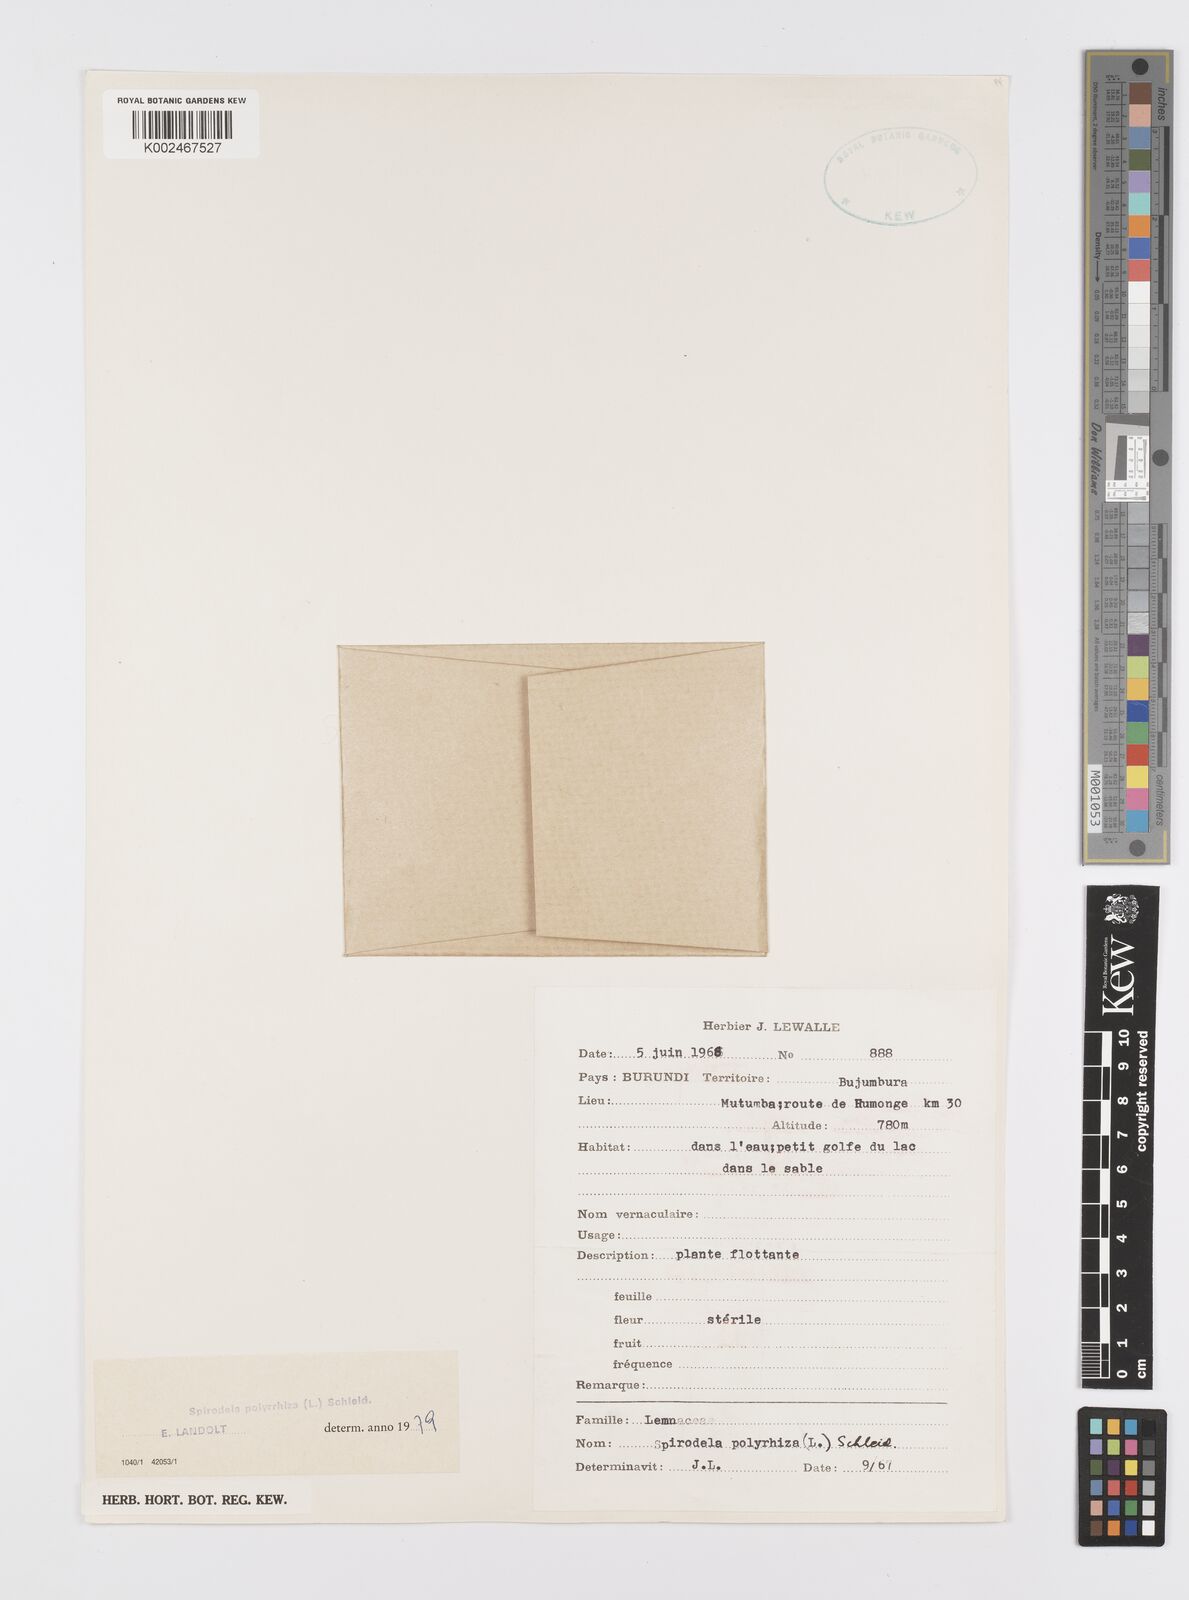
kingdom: Plantae
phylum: Tracheophyta
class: Liliopsida
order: Alismatales
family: Araceae
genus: Spirodela
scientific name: Spirodela polyrhiza
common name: Great duckweed
